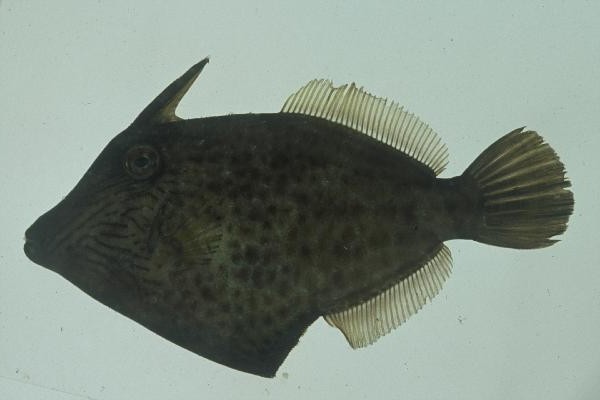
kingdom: Animalia
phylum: Chordata
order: Tetraodontiformes
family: Monacanthidae
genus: Cantherhines
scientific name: Cantherhines pardalis
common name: Honeycomb filefish
